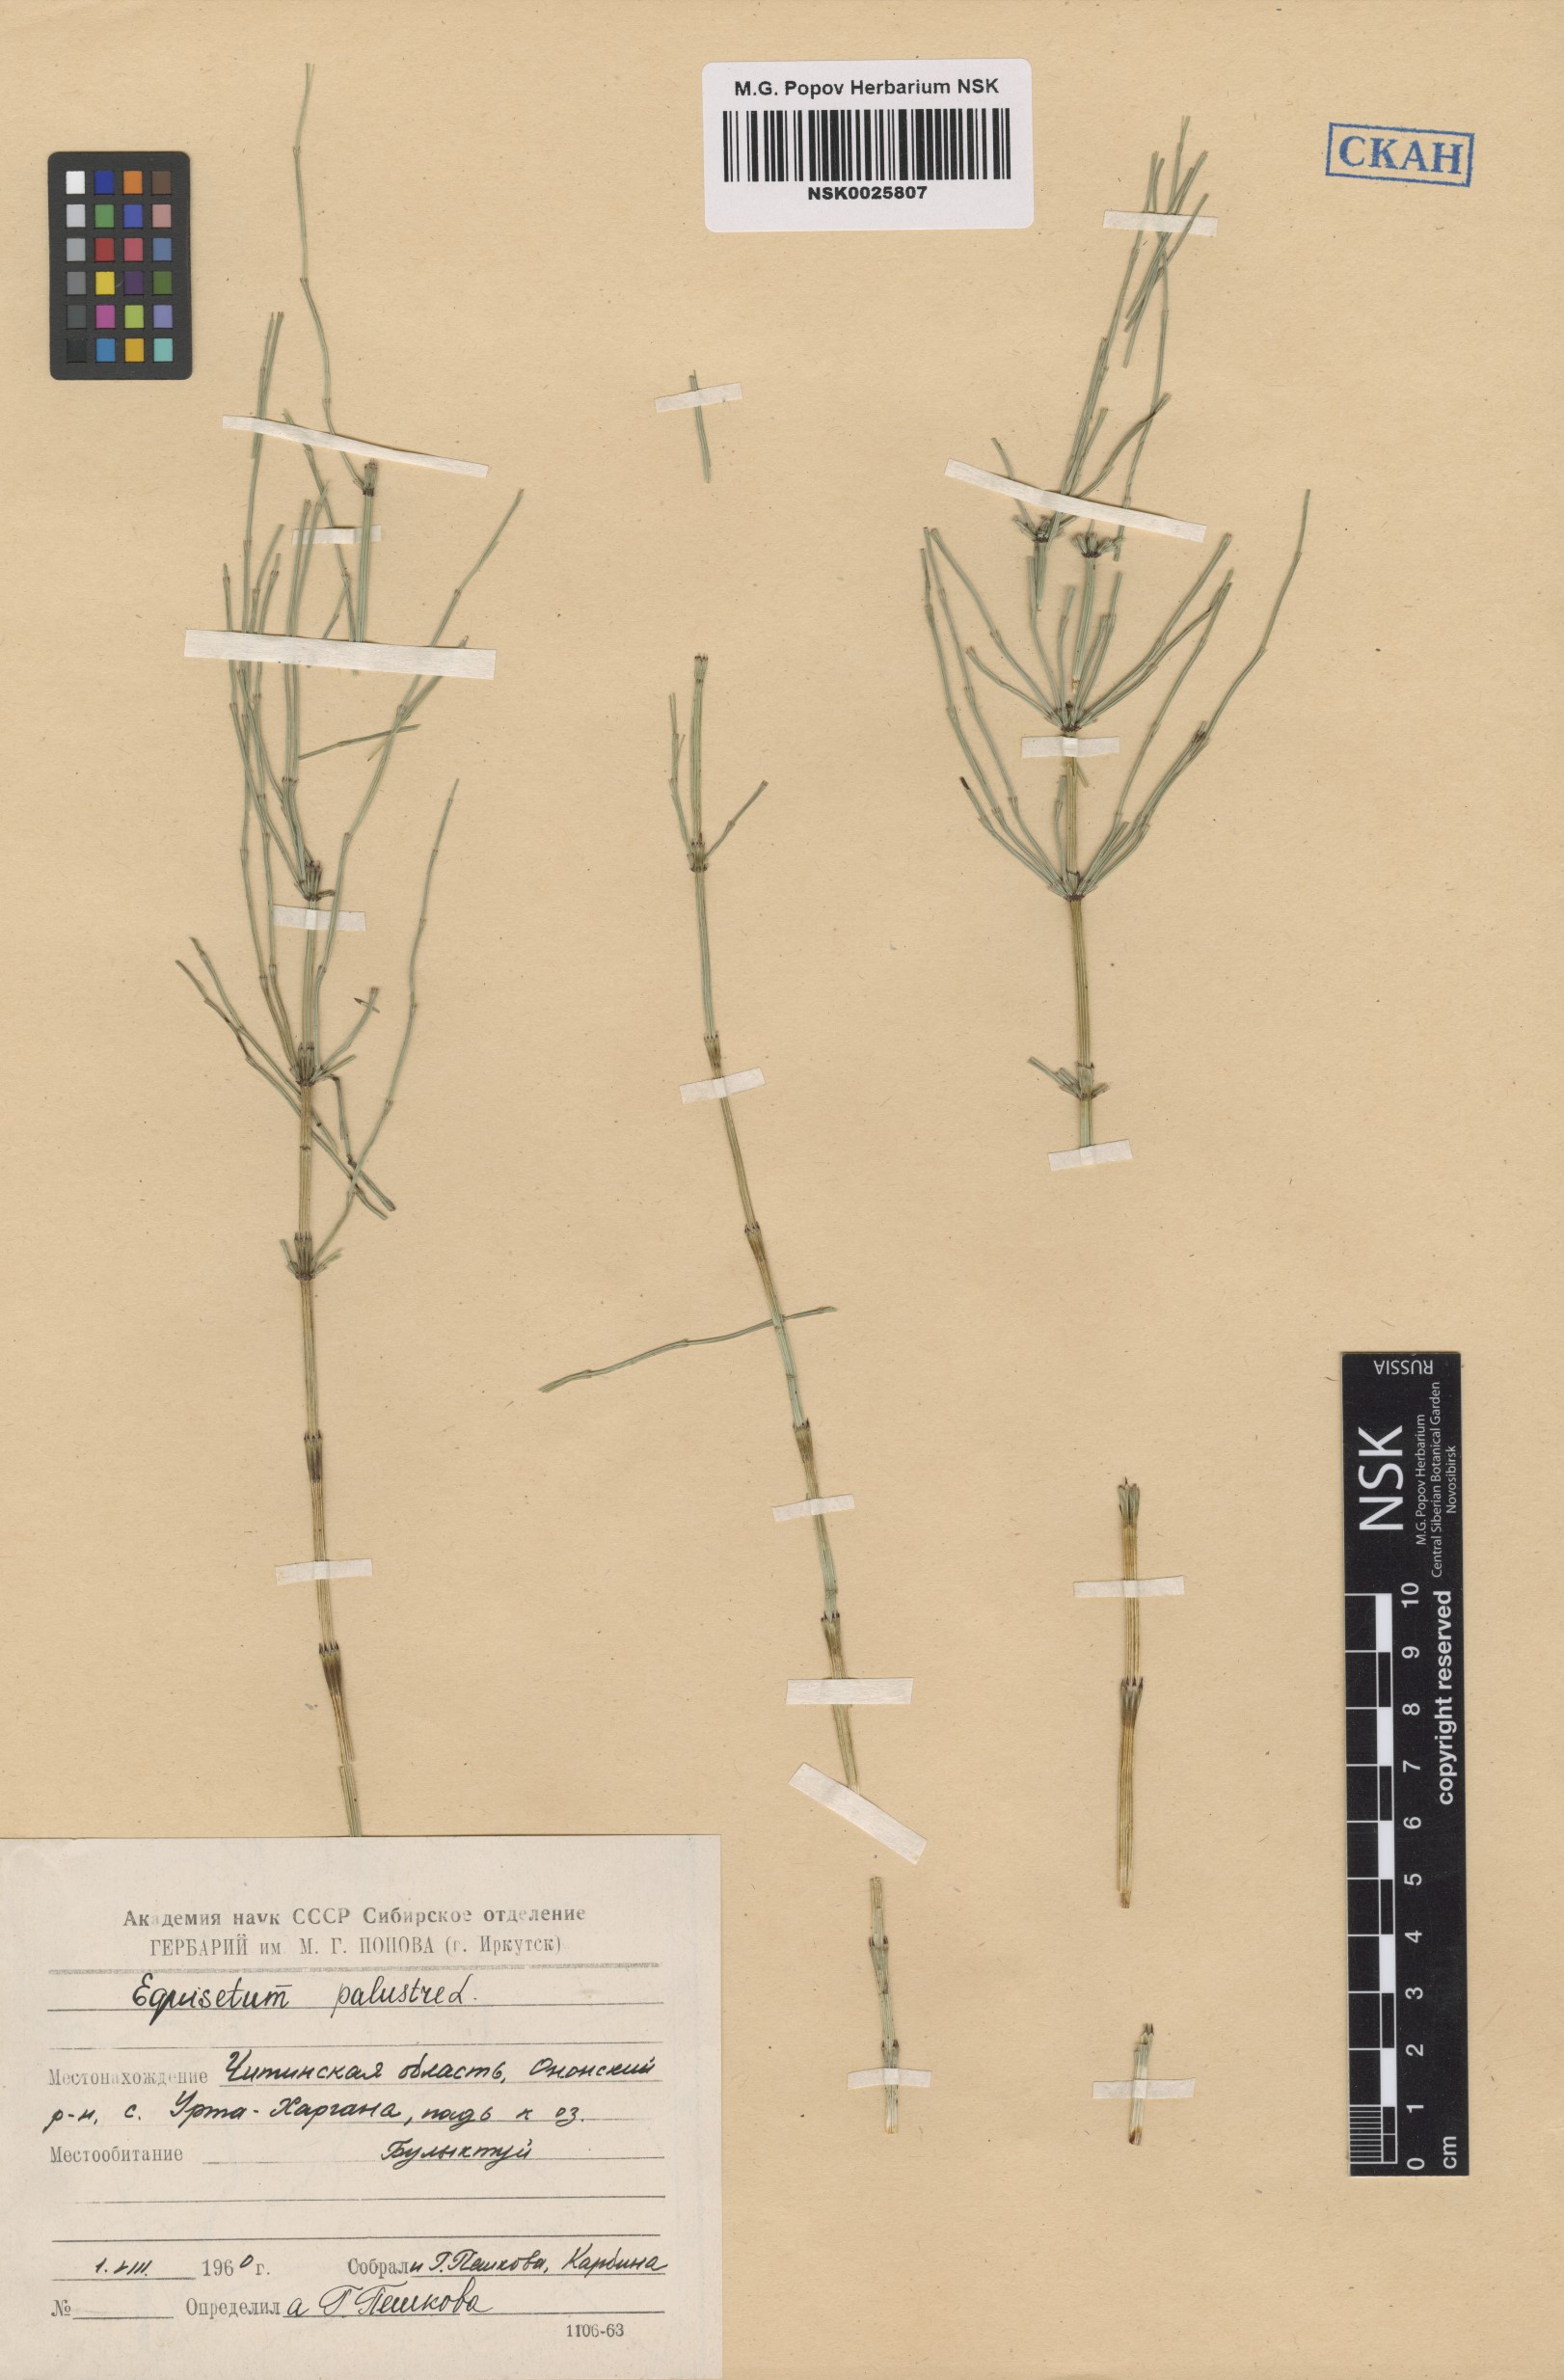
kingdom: Plantae
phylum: Tracheophyta
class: Polypodiopsida
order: Equisetales
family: Equisetaceae
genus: Equisetum
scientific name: Equisetum palustre
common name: Marsh horsetail
